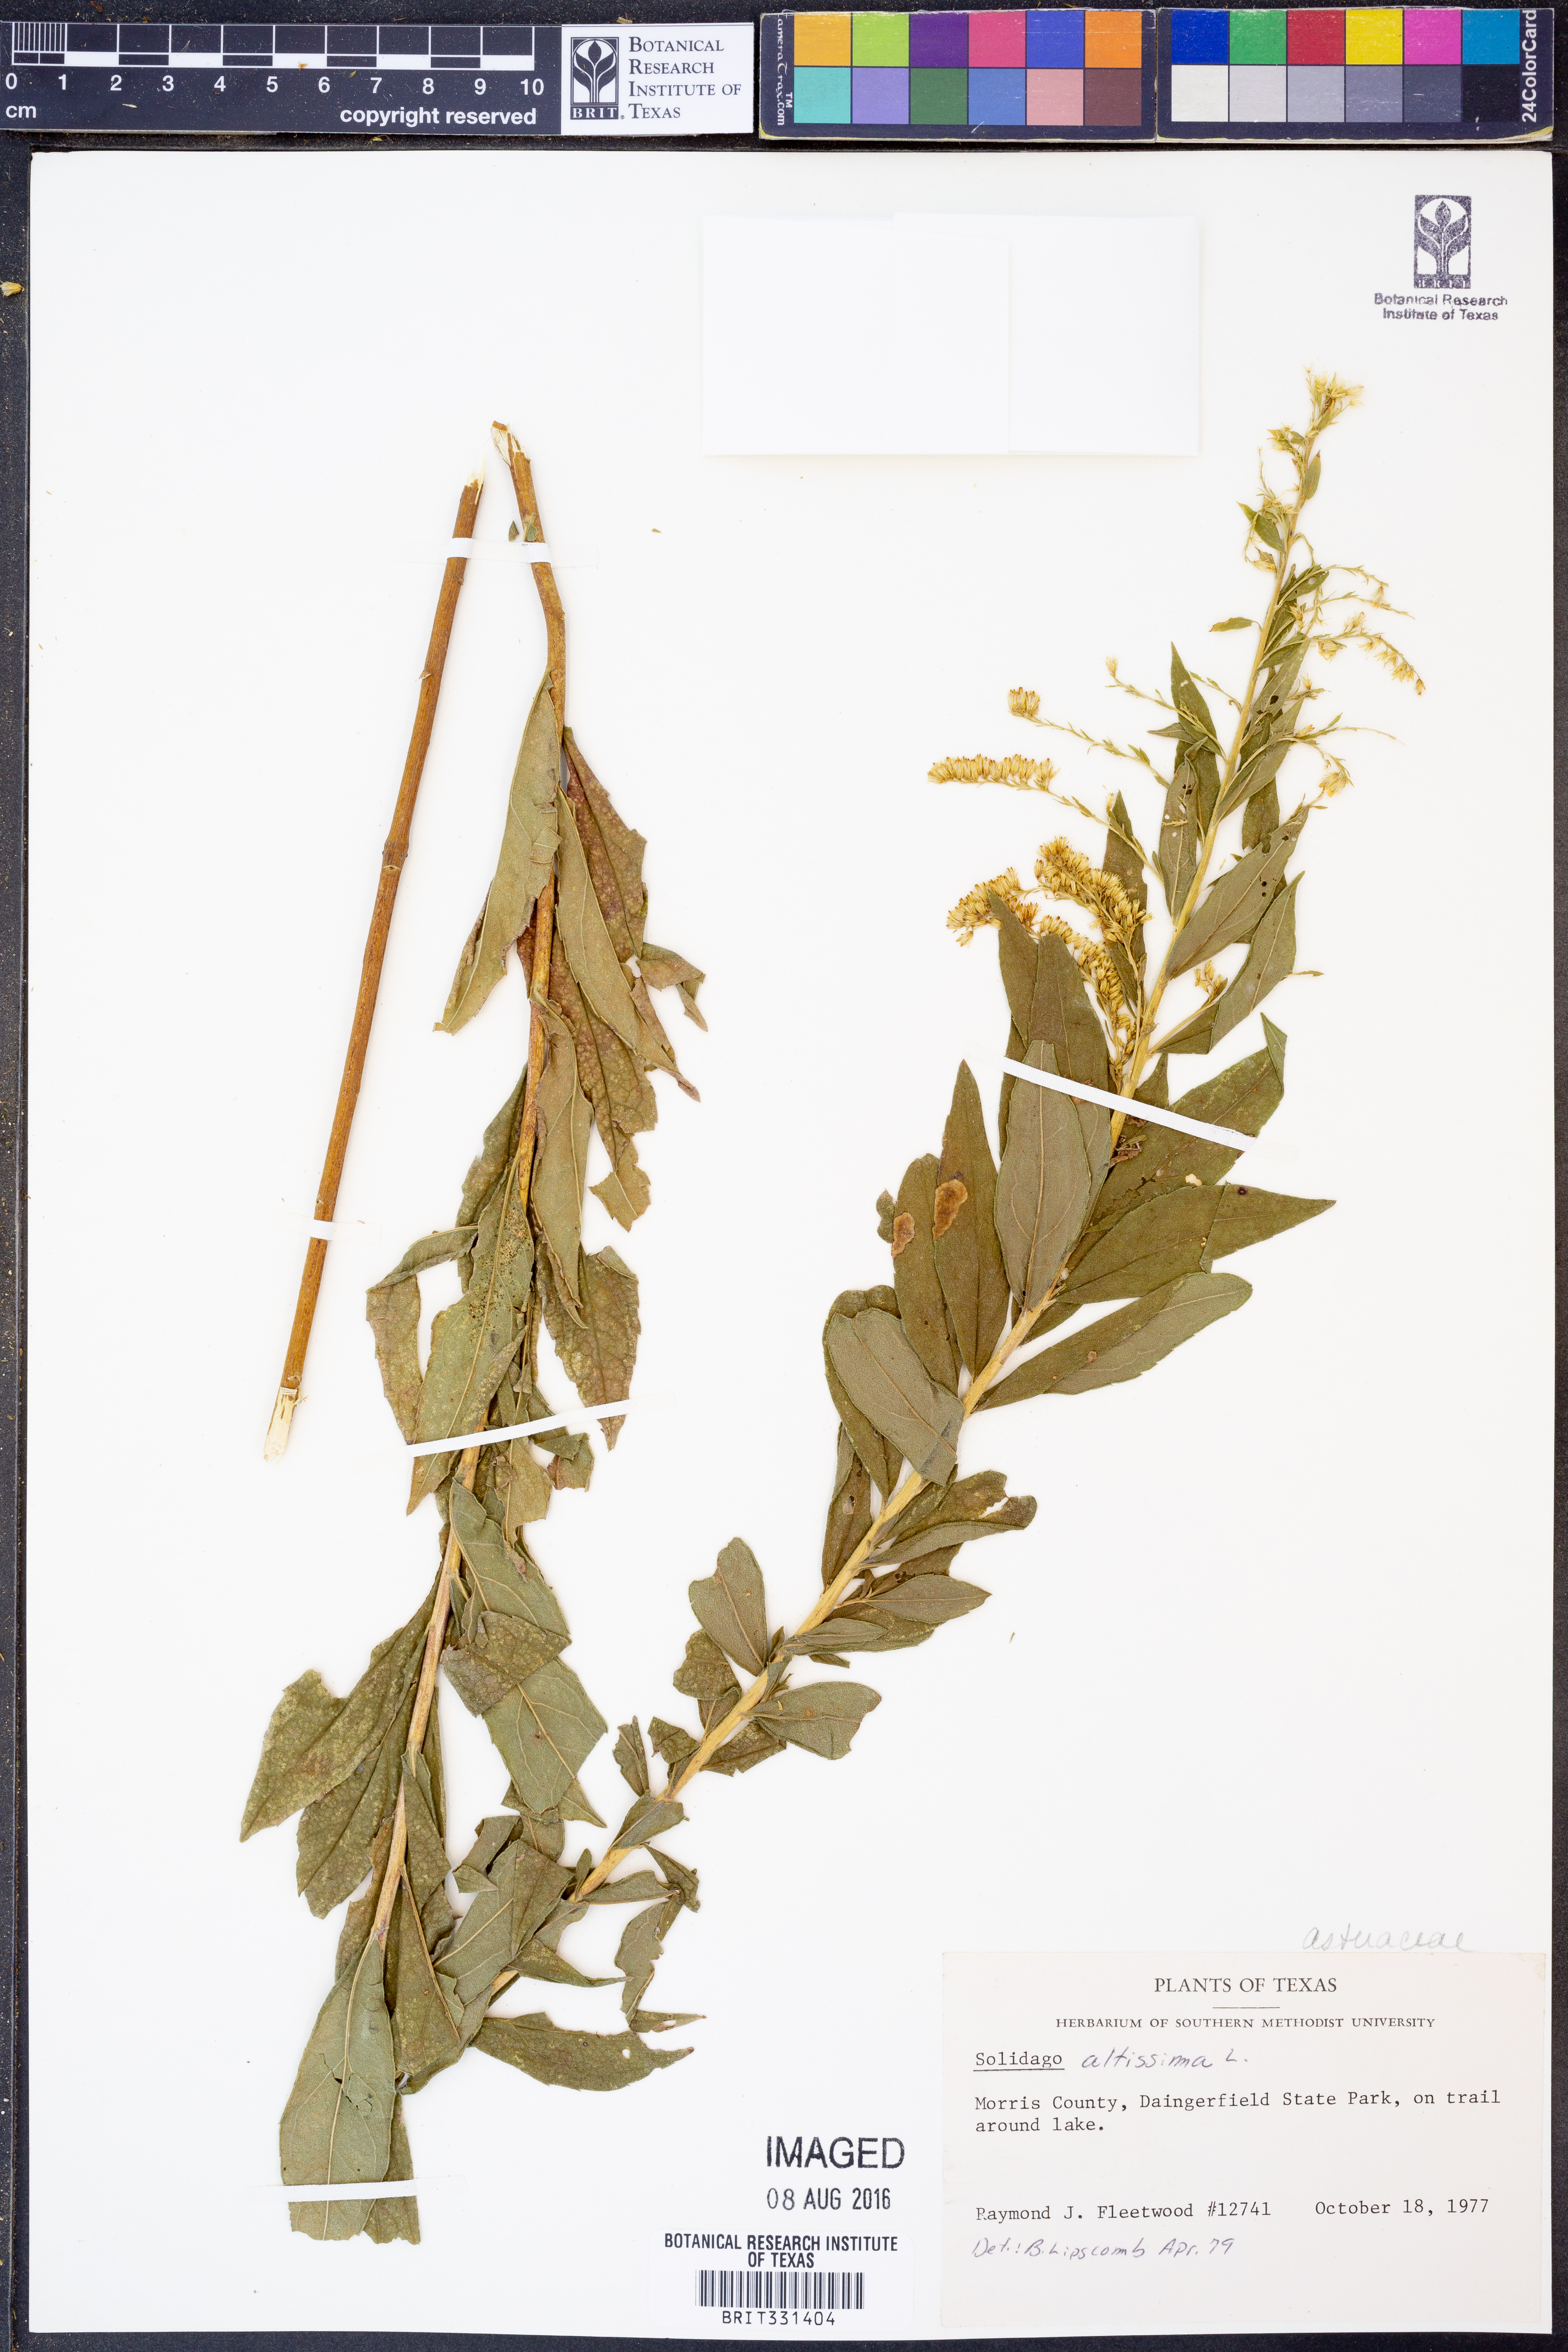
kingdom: Plantae
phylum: Tracheophyta
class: Magnoliopsida
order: Asterales
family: Asteraceae
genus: Solidago
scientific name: Solidago altissima
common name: Late goldenrod
